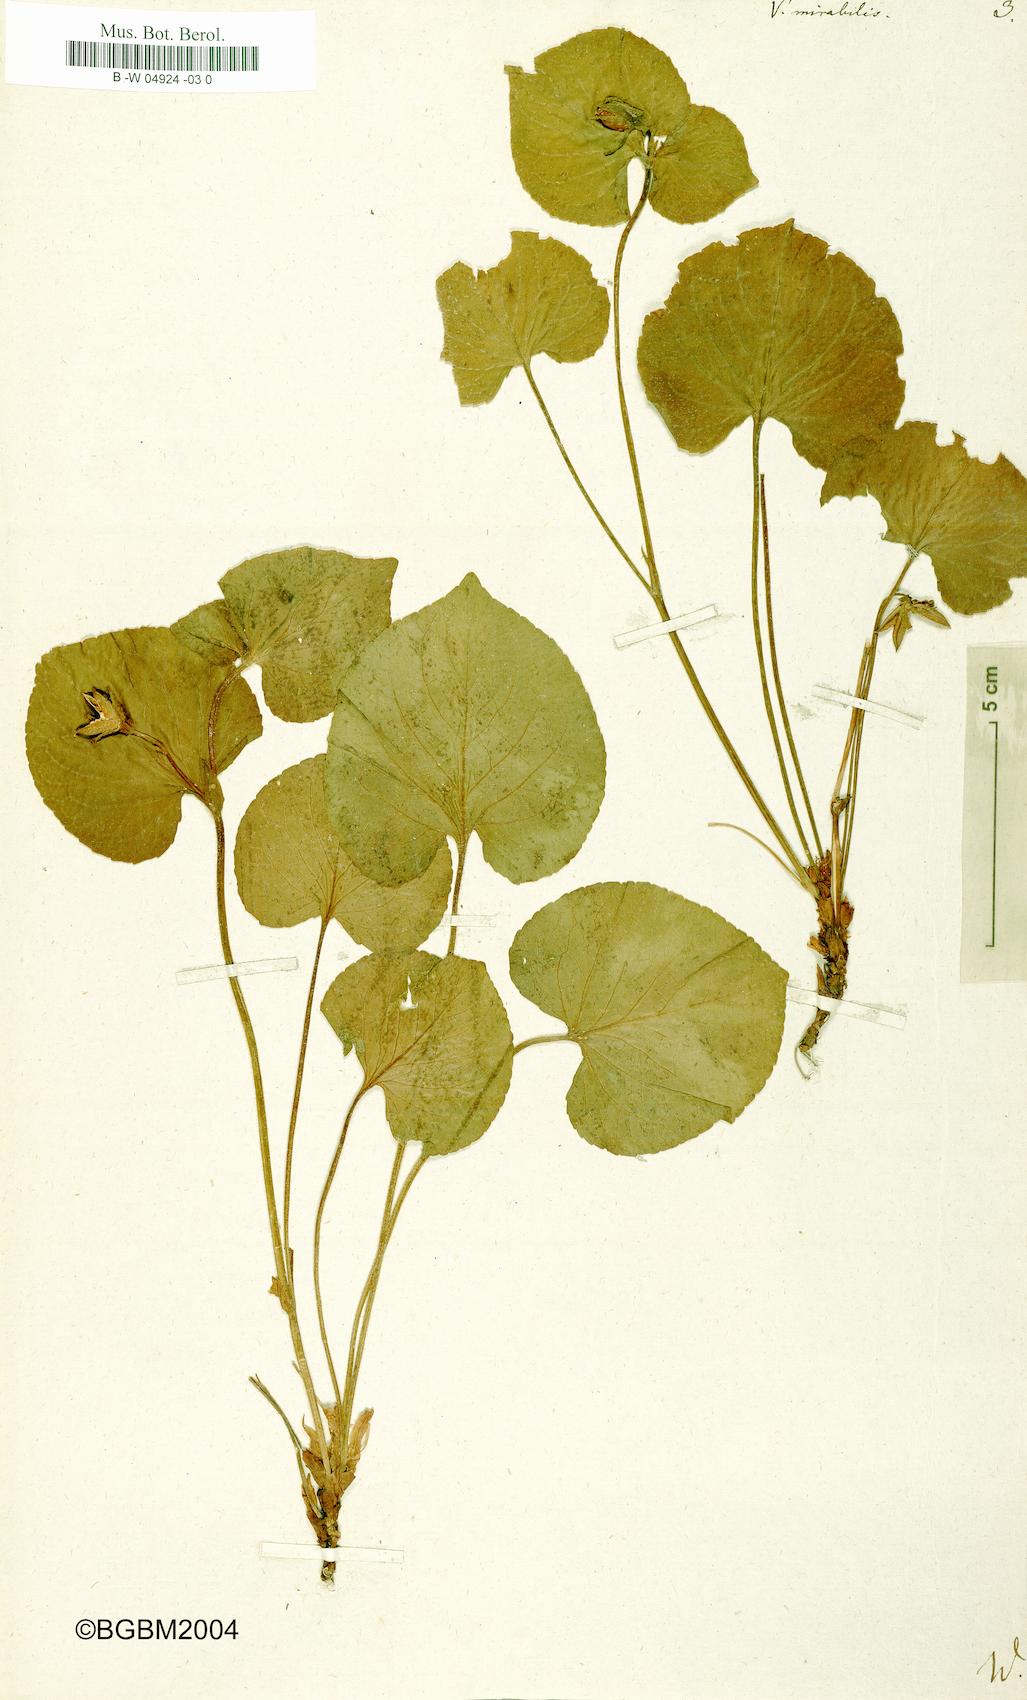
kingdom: Plantae
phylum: Tracheophyta
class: Magnoliopsida
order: Malpighiales
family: Violaceae
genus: Viola
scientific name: Viola mirabilis
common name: Wonder violet
